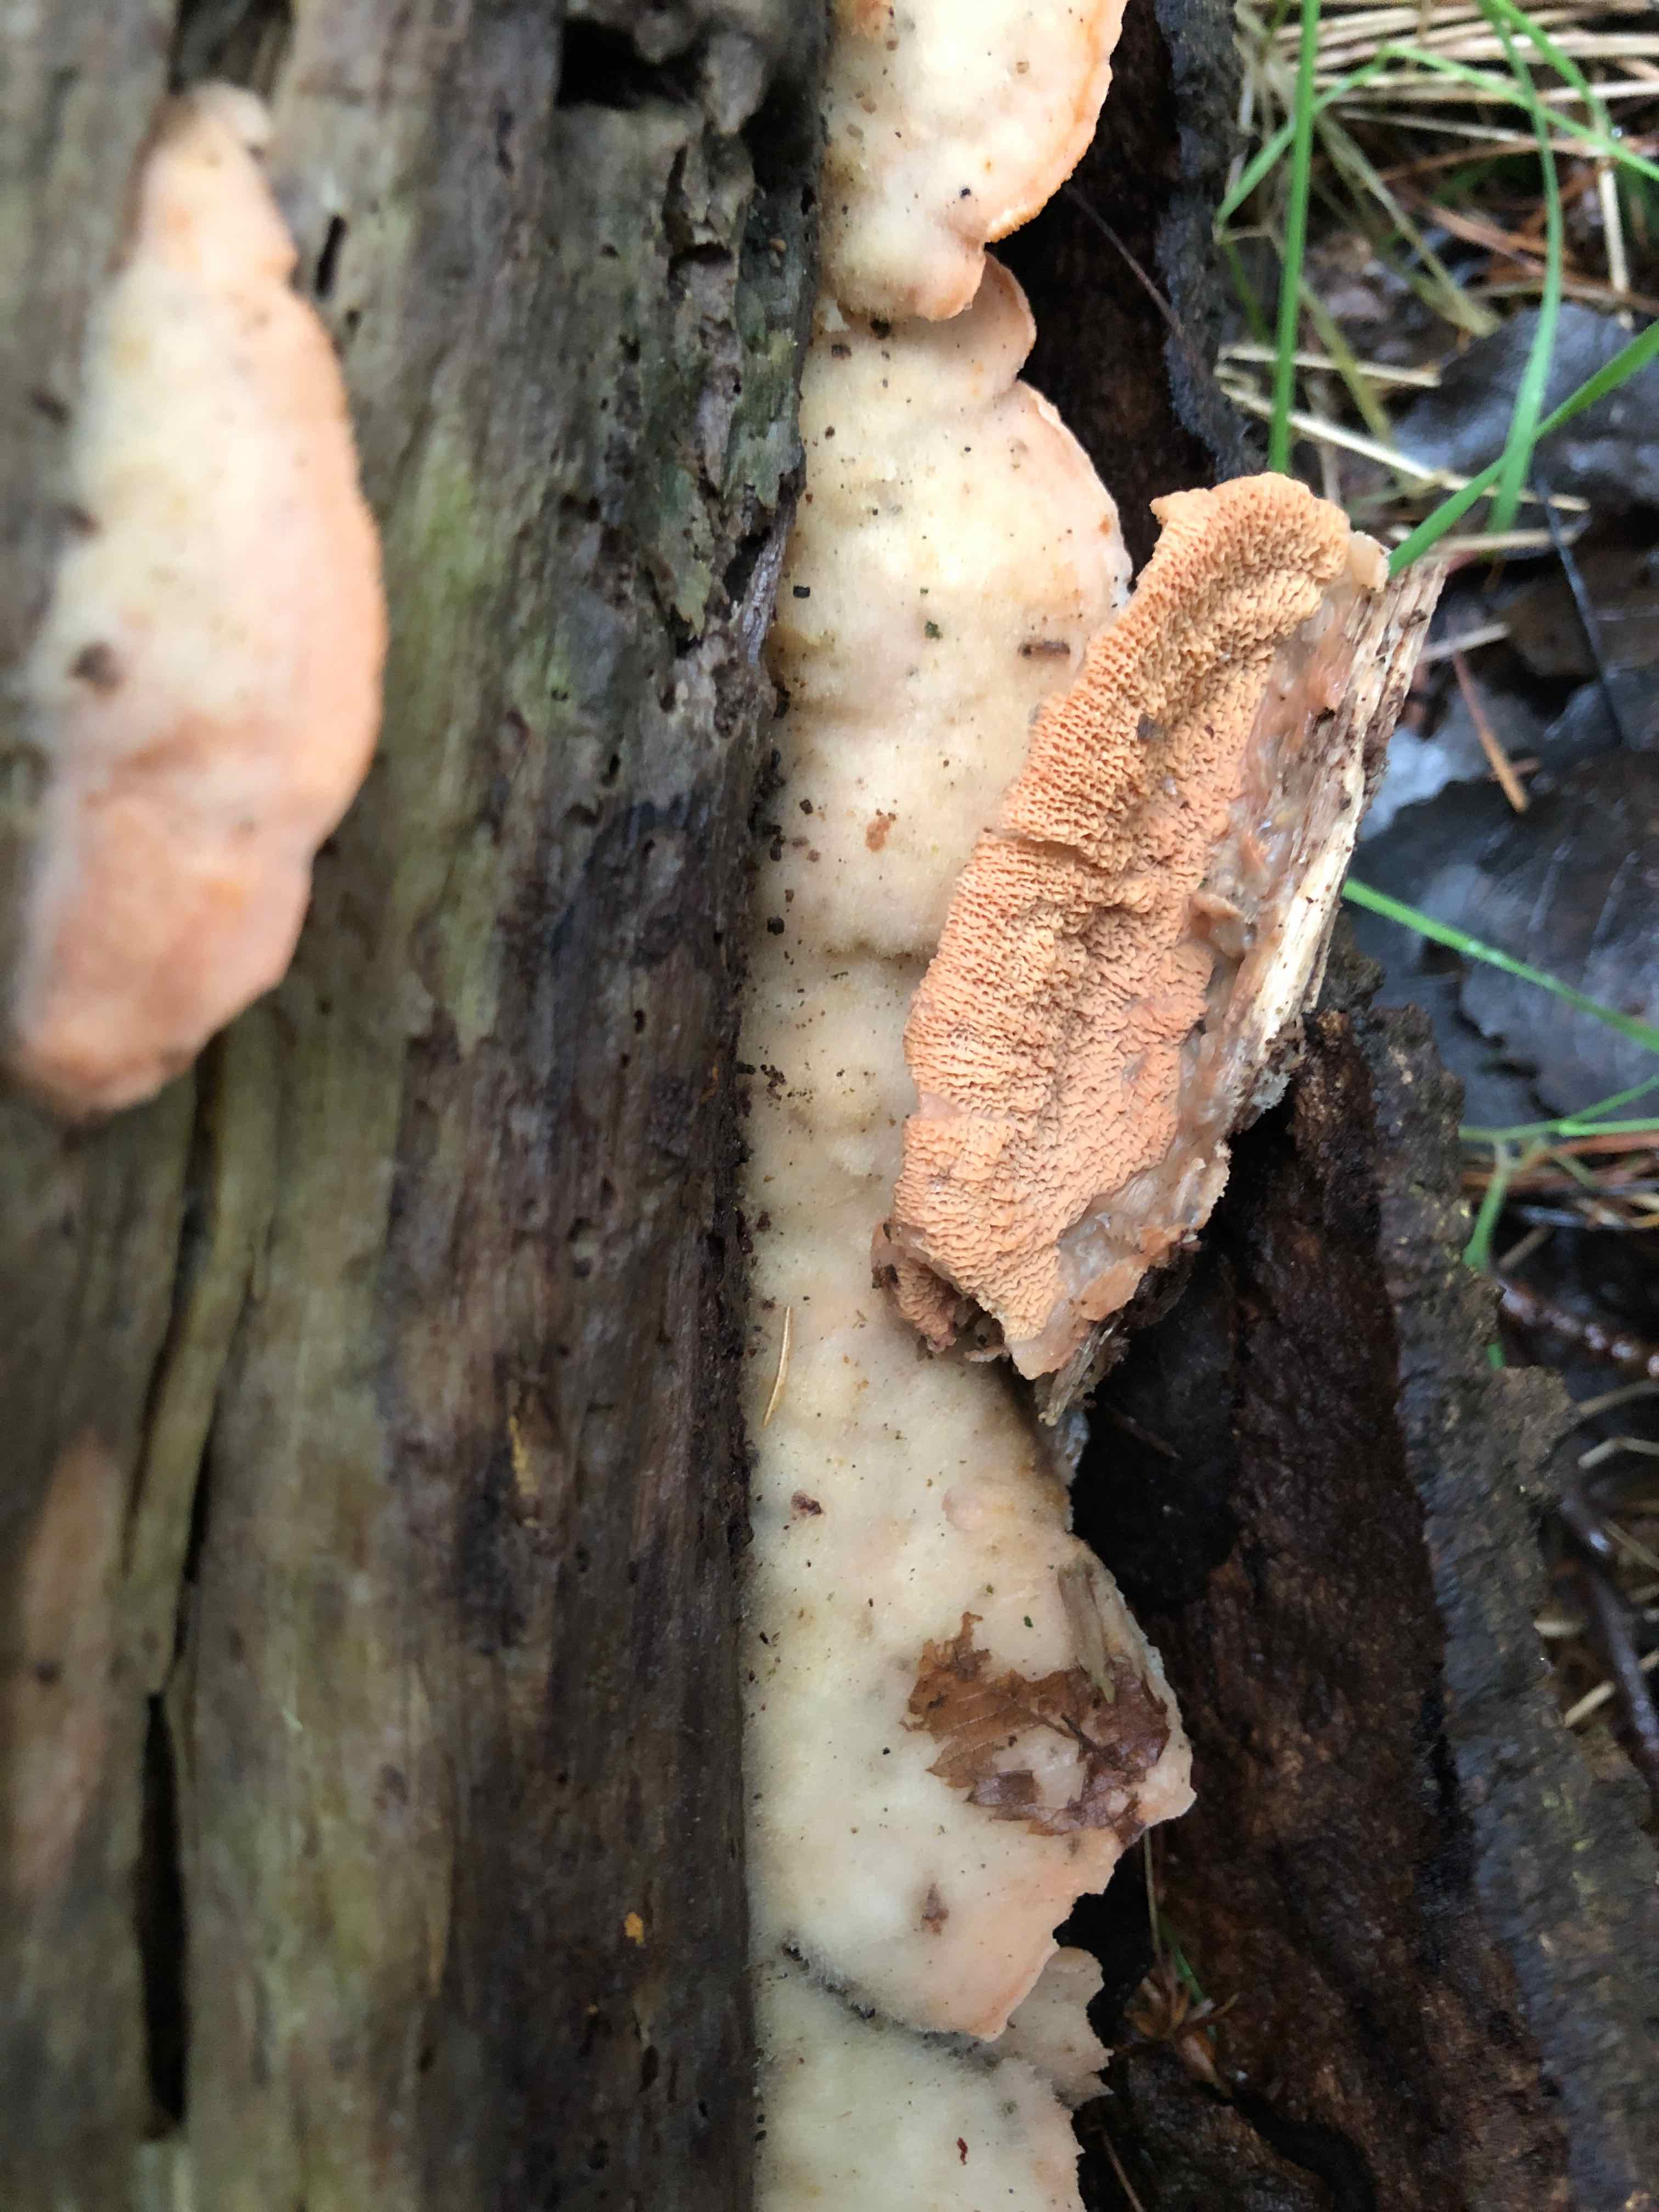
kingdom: Fungi
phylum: Basidiomycota
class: Agaricomycetes
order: Polyporales
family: Meruliaceae
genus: Phlebia
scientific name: Phlebia tremellosa
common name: bævrende åresvamp
